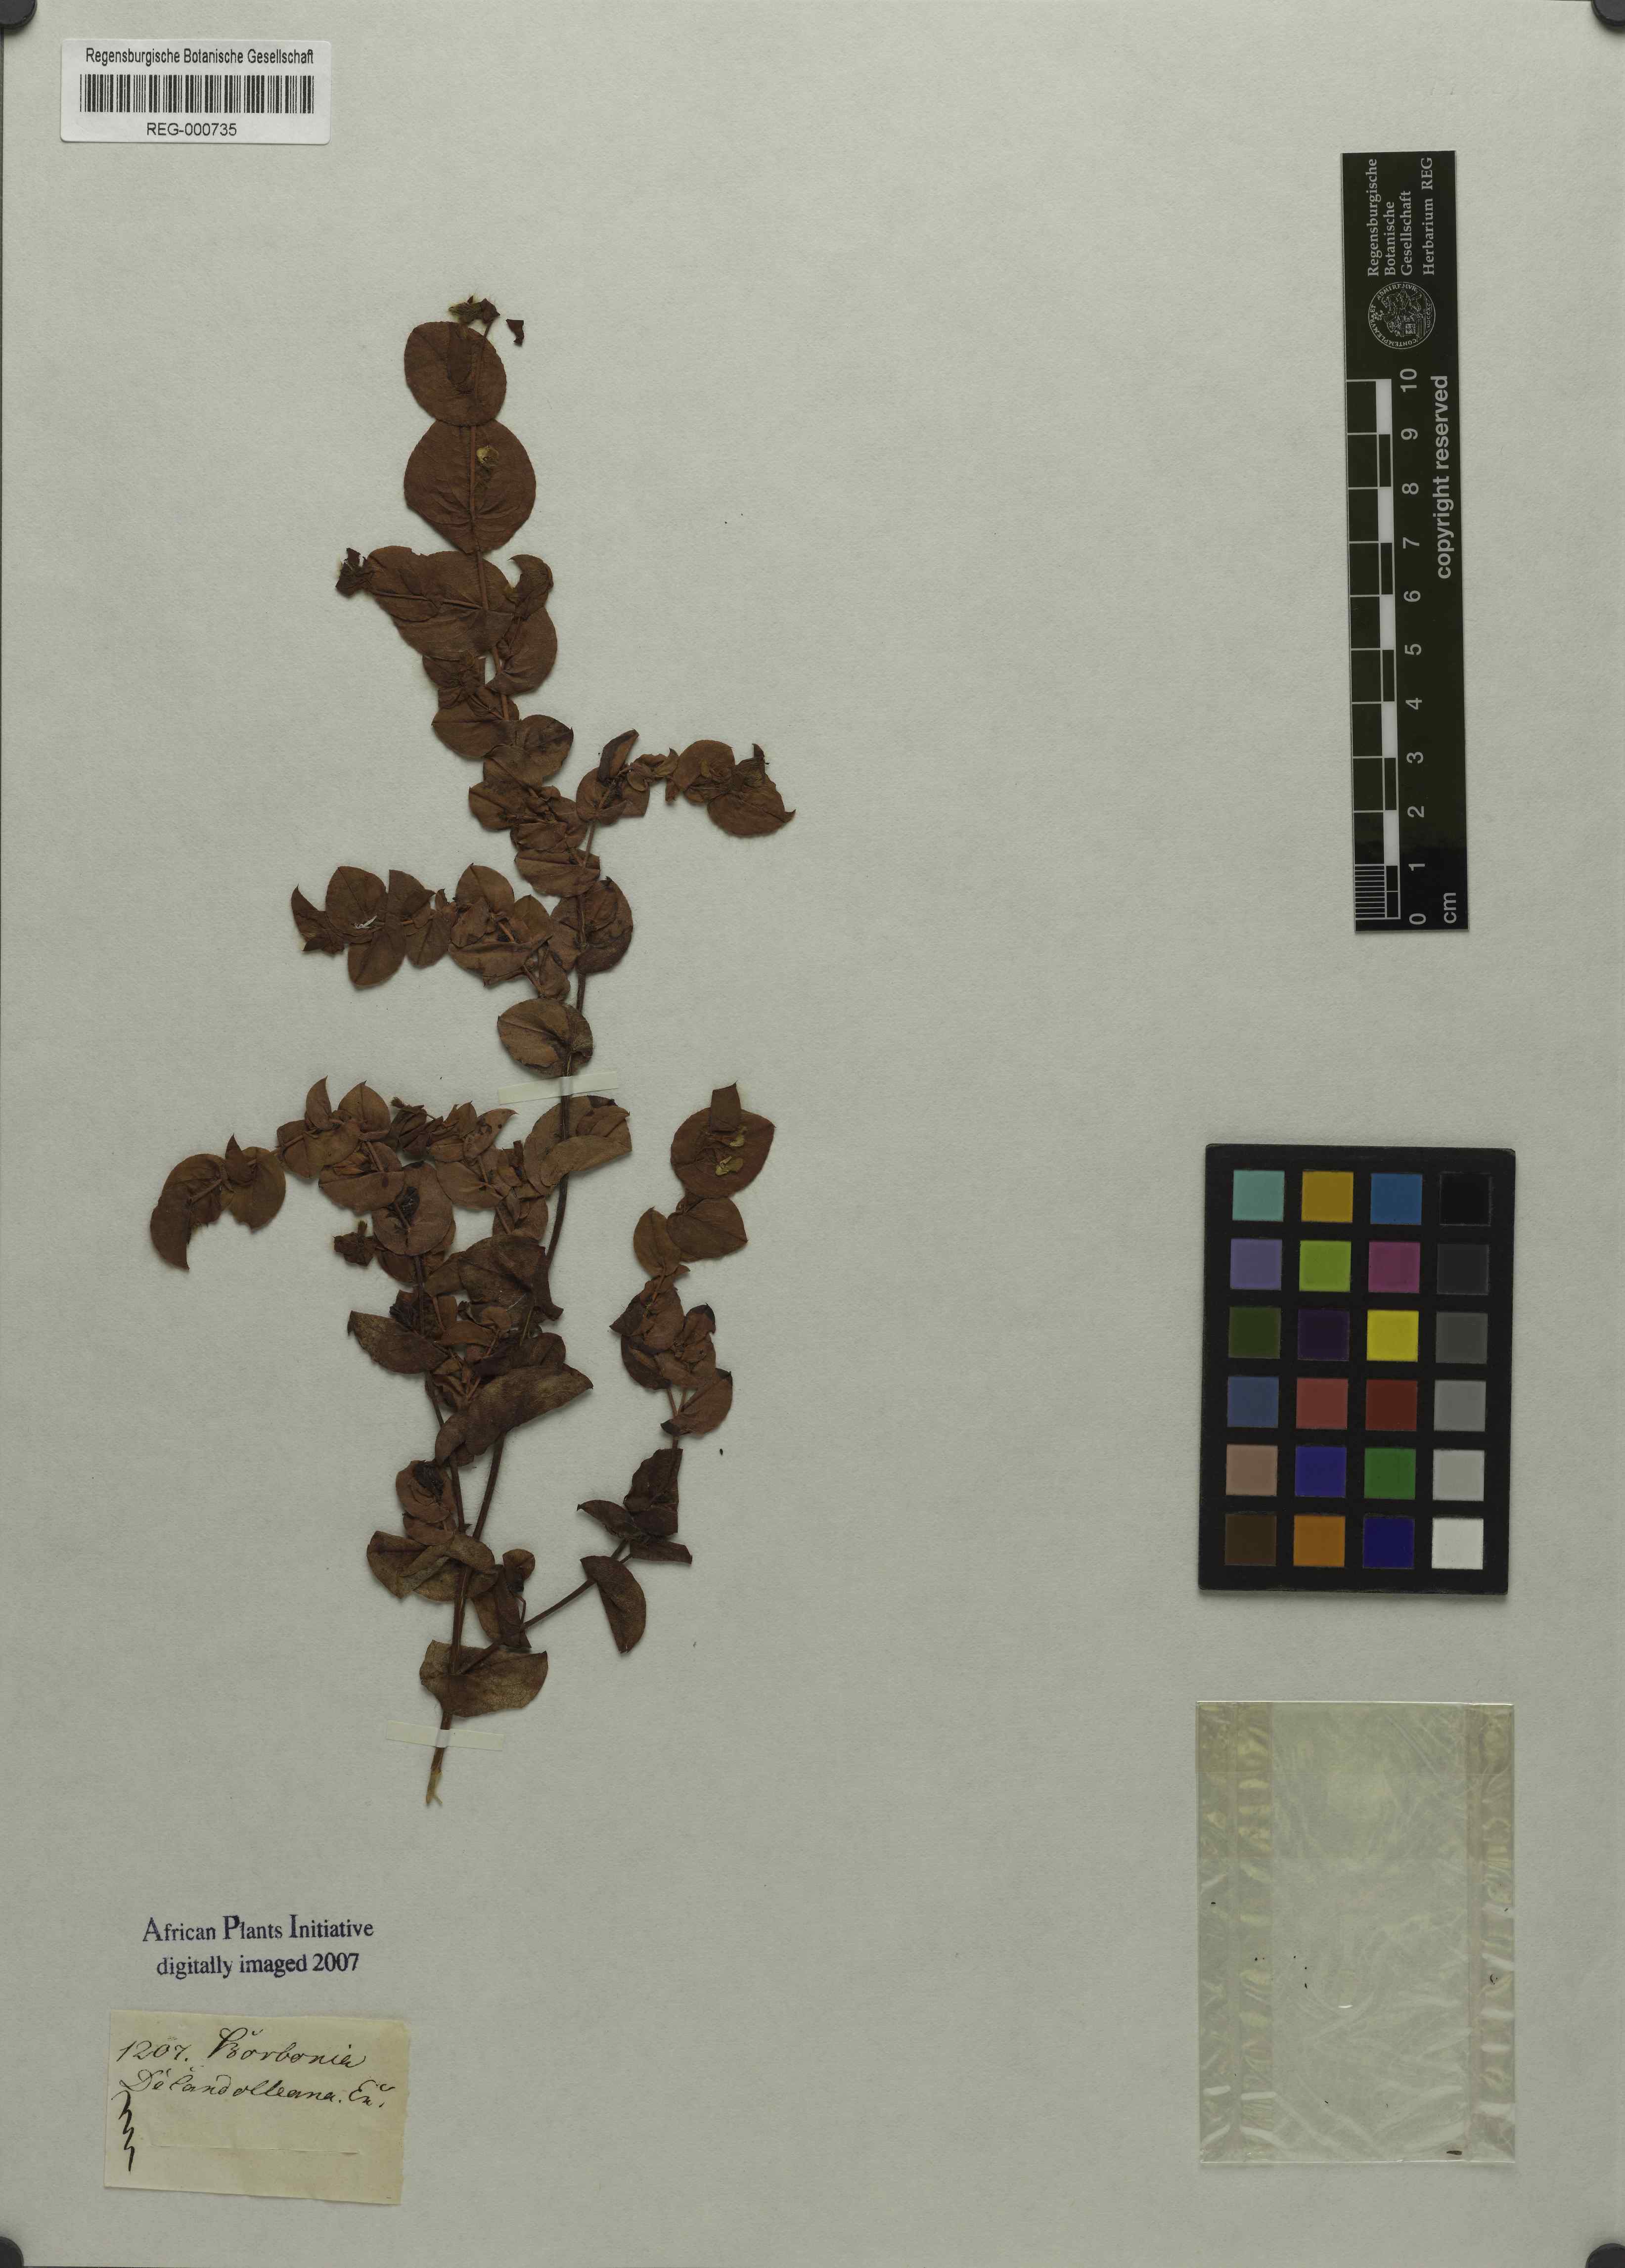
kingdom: Plantae
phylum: Tracheophyta
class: Magnoliopsida
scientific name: Magnoliopsida
